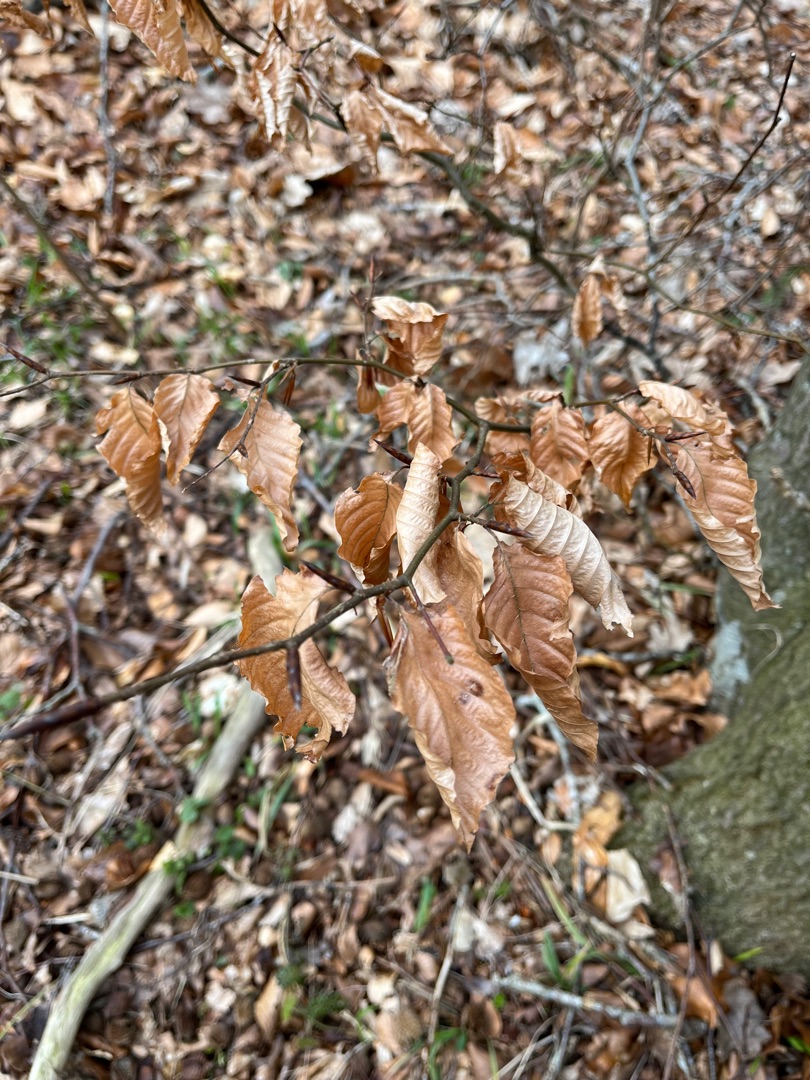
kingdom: Plantae
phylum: Tracheophyta
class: Magnoliopsida
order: Fagales
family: Fagaceae
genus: Fagus
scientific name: Fagus sylvatica
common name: Bøg
